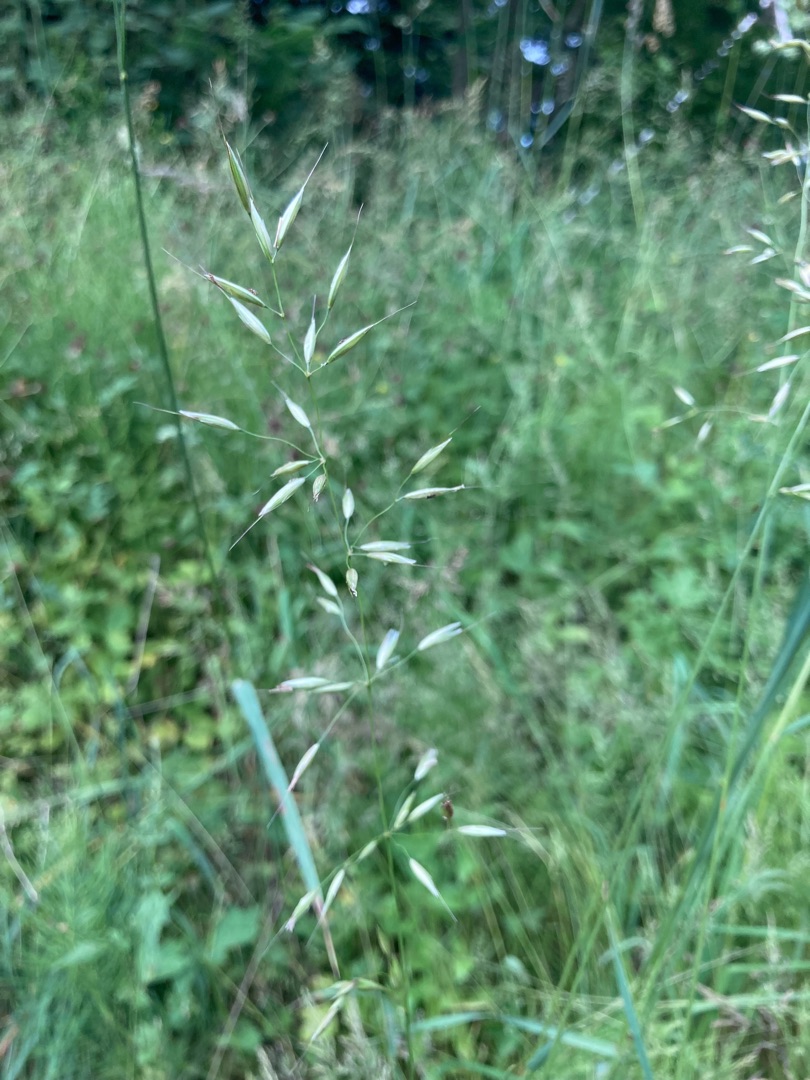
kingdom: Plantae
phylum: Tracheophyta
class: Liliopsida
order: Poales
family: Poaceae
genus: Arrhenatherum
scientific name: Arrhenatherum elatius
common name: Draphavre
